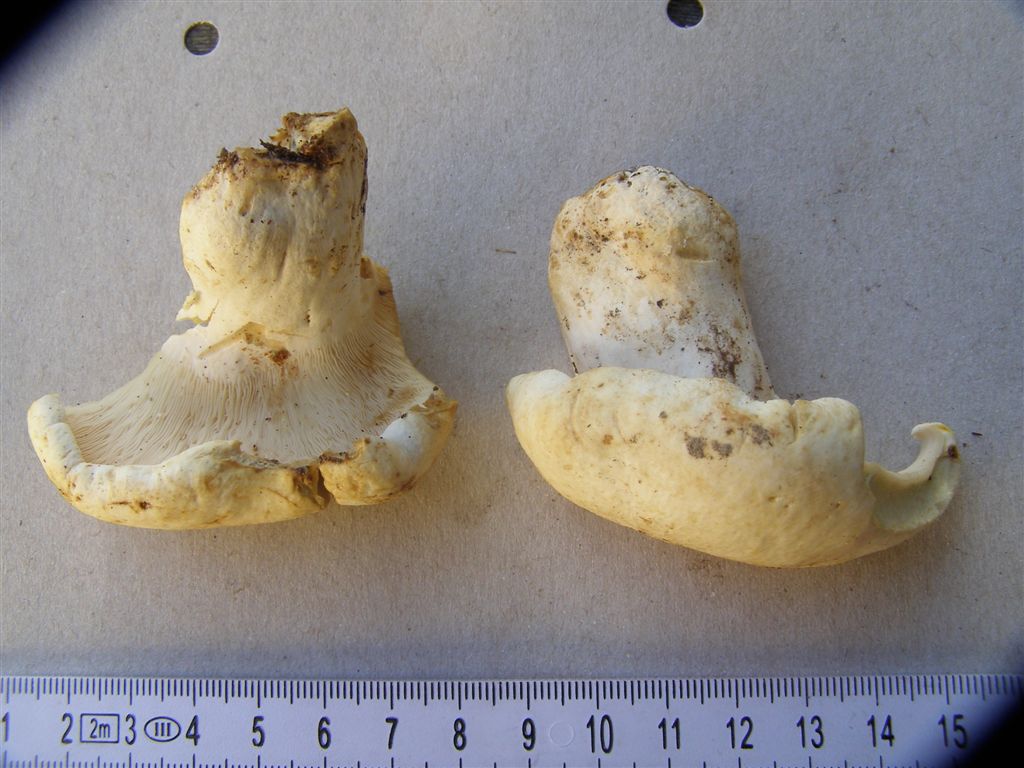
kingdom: Fungi
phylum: Basidiomycota
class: Agaricomycetes
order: Russulales
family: Russulaceae
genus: Lactifluus
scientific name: Lactifluus piperatus
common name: peber-mælkehat
